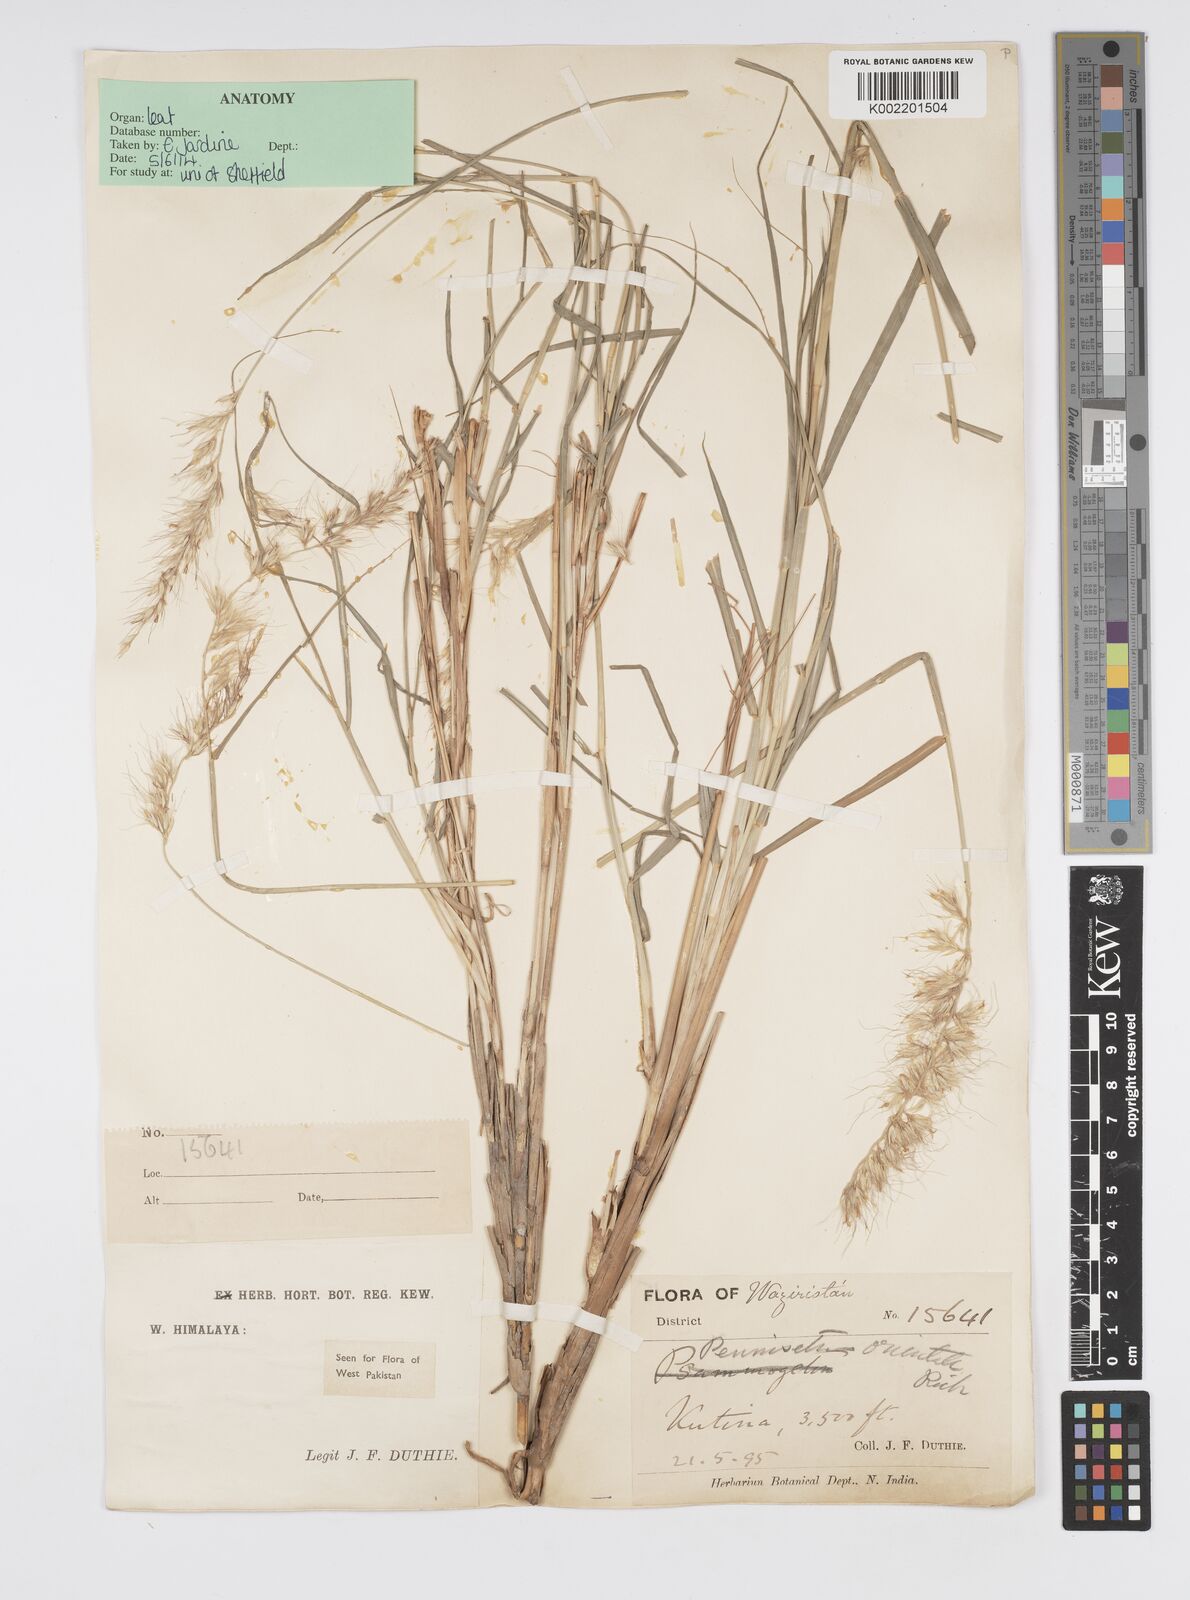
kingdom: Plantae
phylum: Tracheophyta
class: Liliopsida
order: Poales
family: Poaceae
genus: Cenchrus
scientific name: Cenchrus orientalis
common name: Oriental fountain grass
